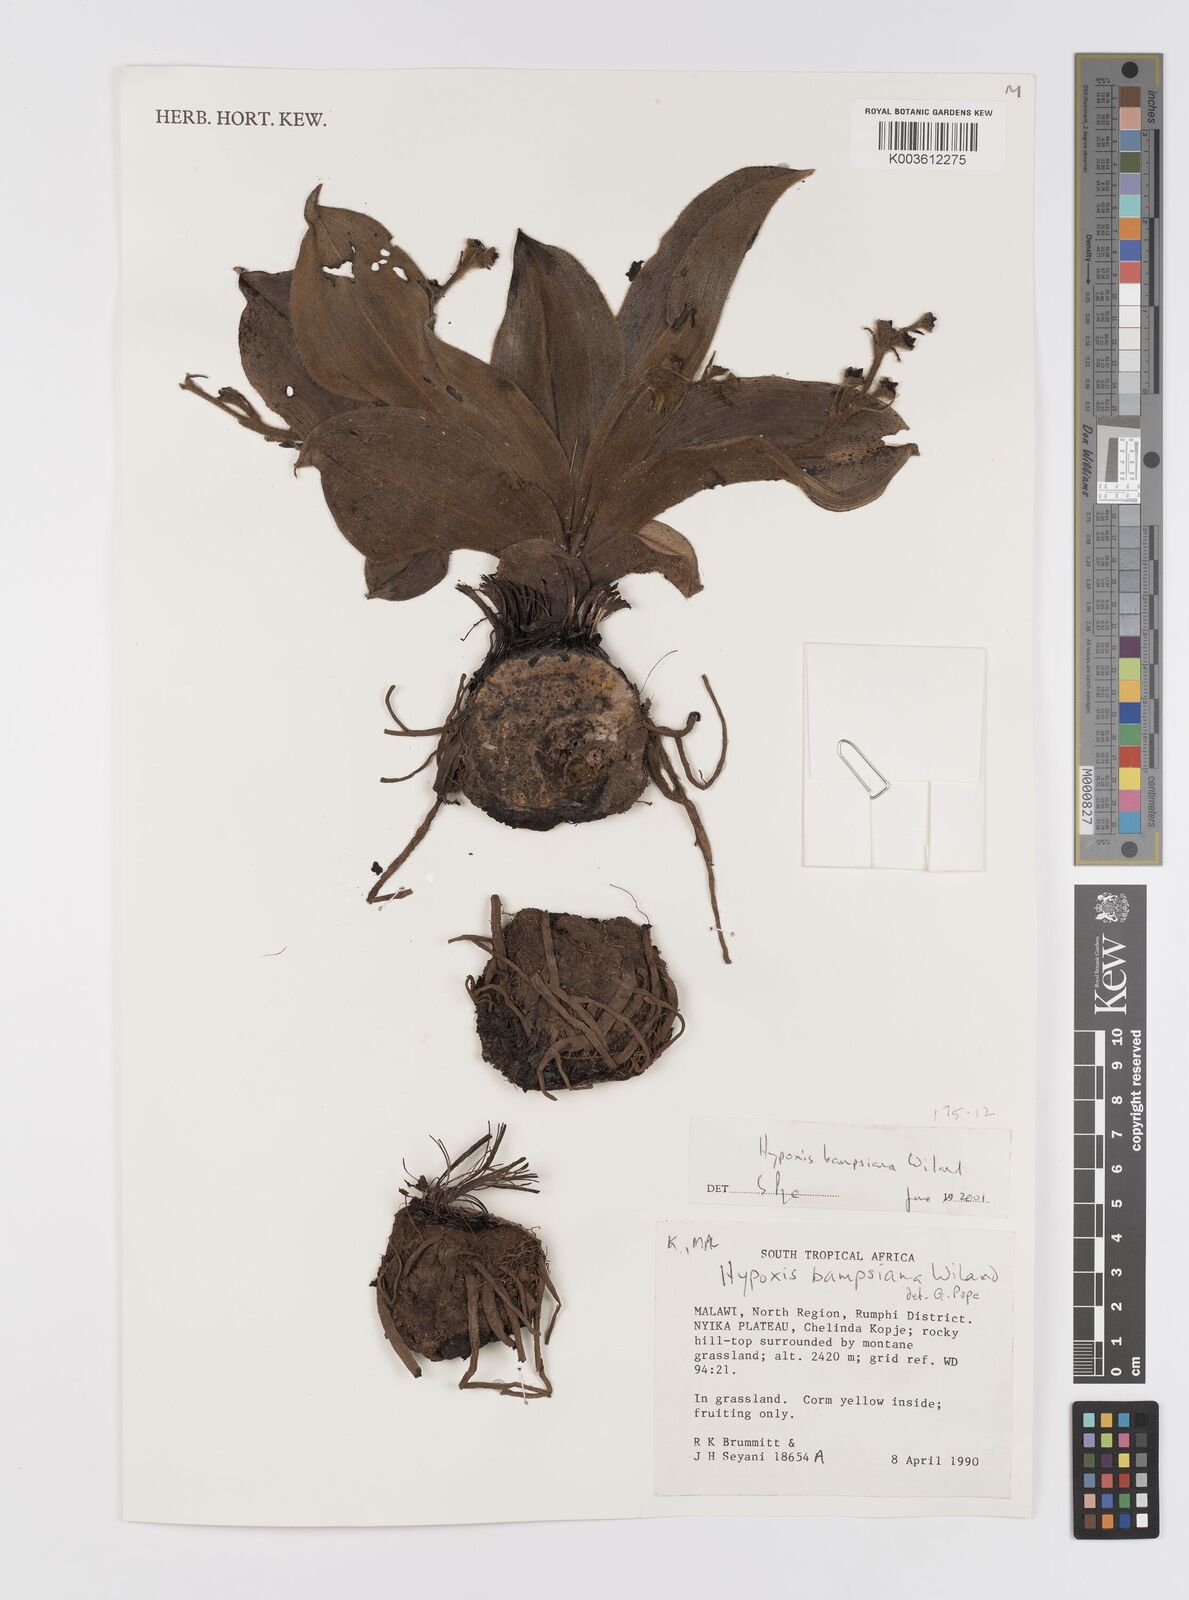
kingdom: Plantae
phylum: Tracheophyta
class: Liliopsida
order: Asparagales
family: Hypoxidaceae
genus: Hypoxis
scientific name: Hypoxis bampsiana
